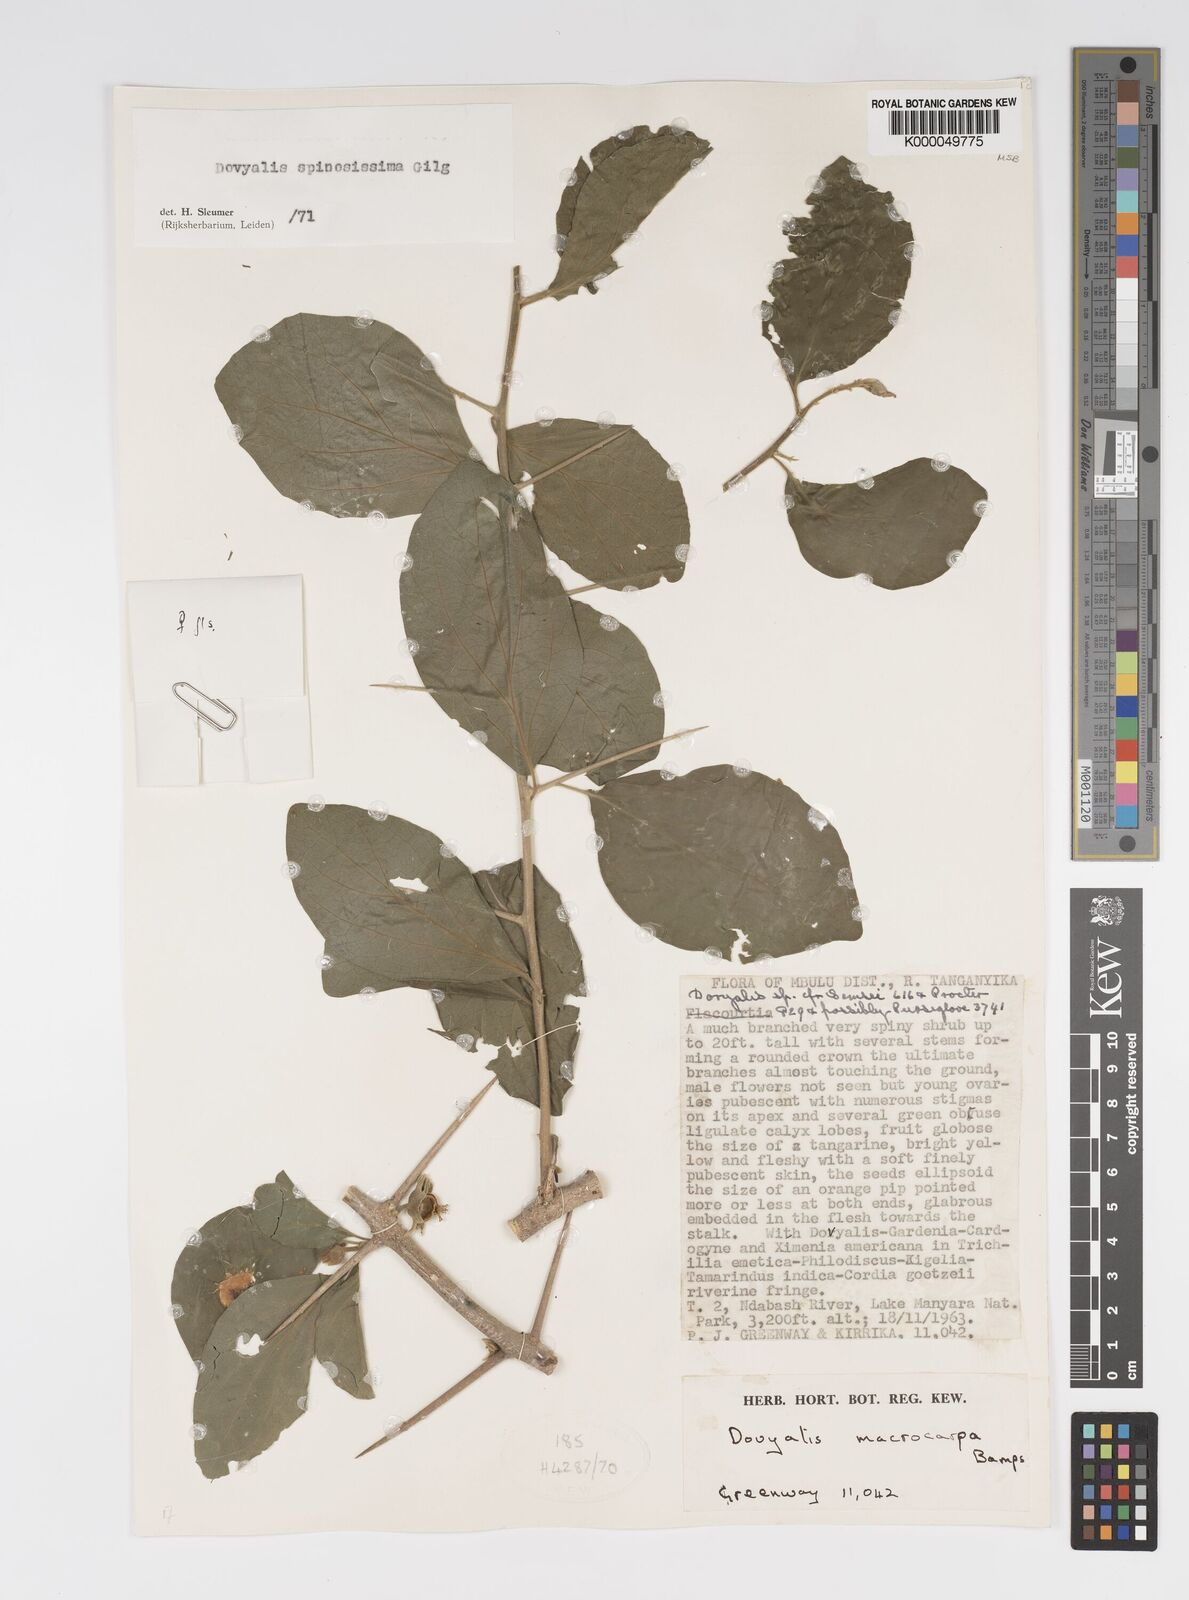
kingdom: Plantae
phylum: Tracheophyta
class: Magnoliopsida
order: Malpighiales
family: Salicaceae
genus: Dovyalis
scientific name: Dovyalis spinosissima
